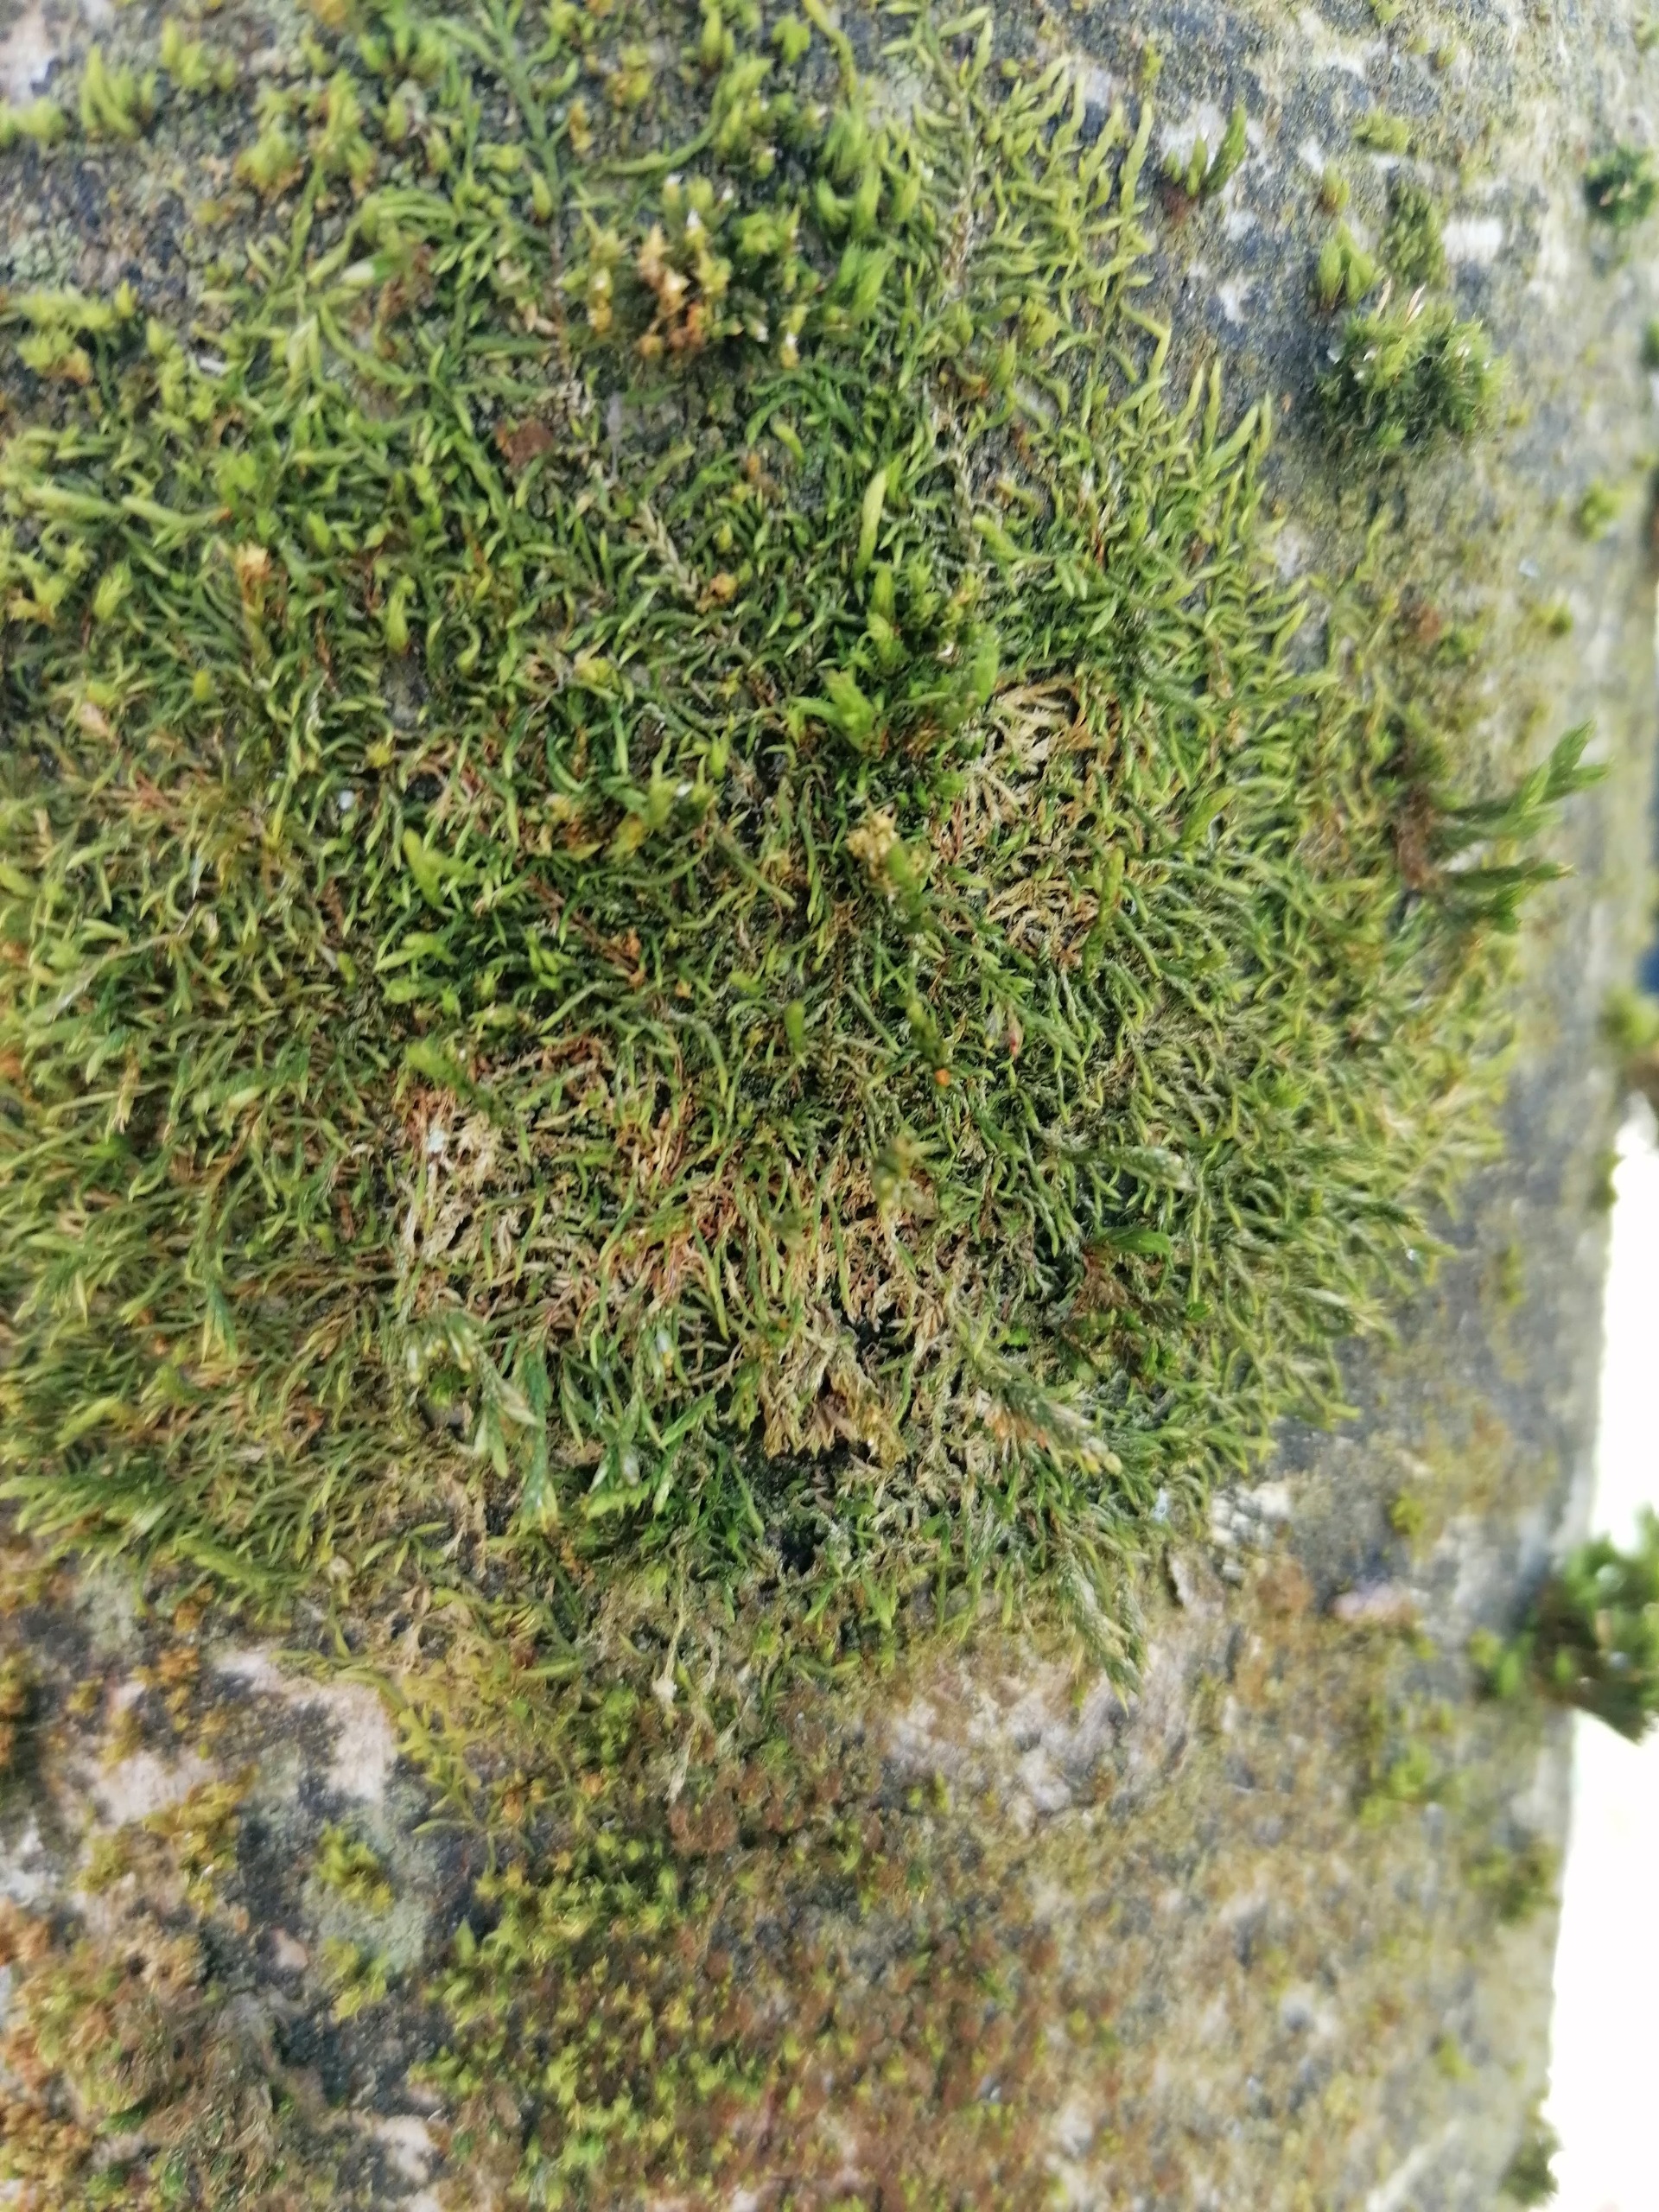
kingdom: Plantae
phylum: Bryophyta
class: Bryopsida
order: Hypnales
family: Cryphaeaceae
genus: Cryphaea
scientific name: Cryphaea heteromalla
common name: Bark-dækmos
